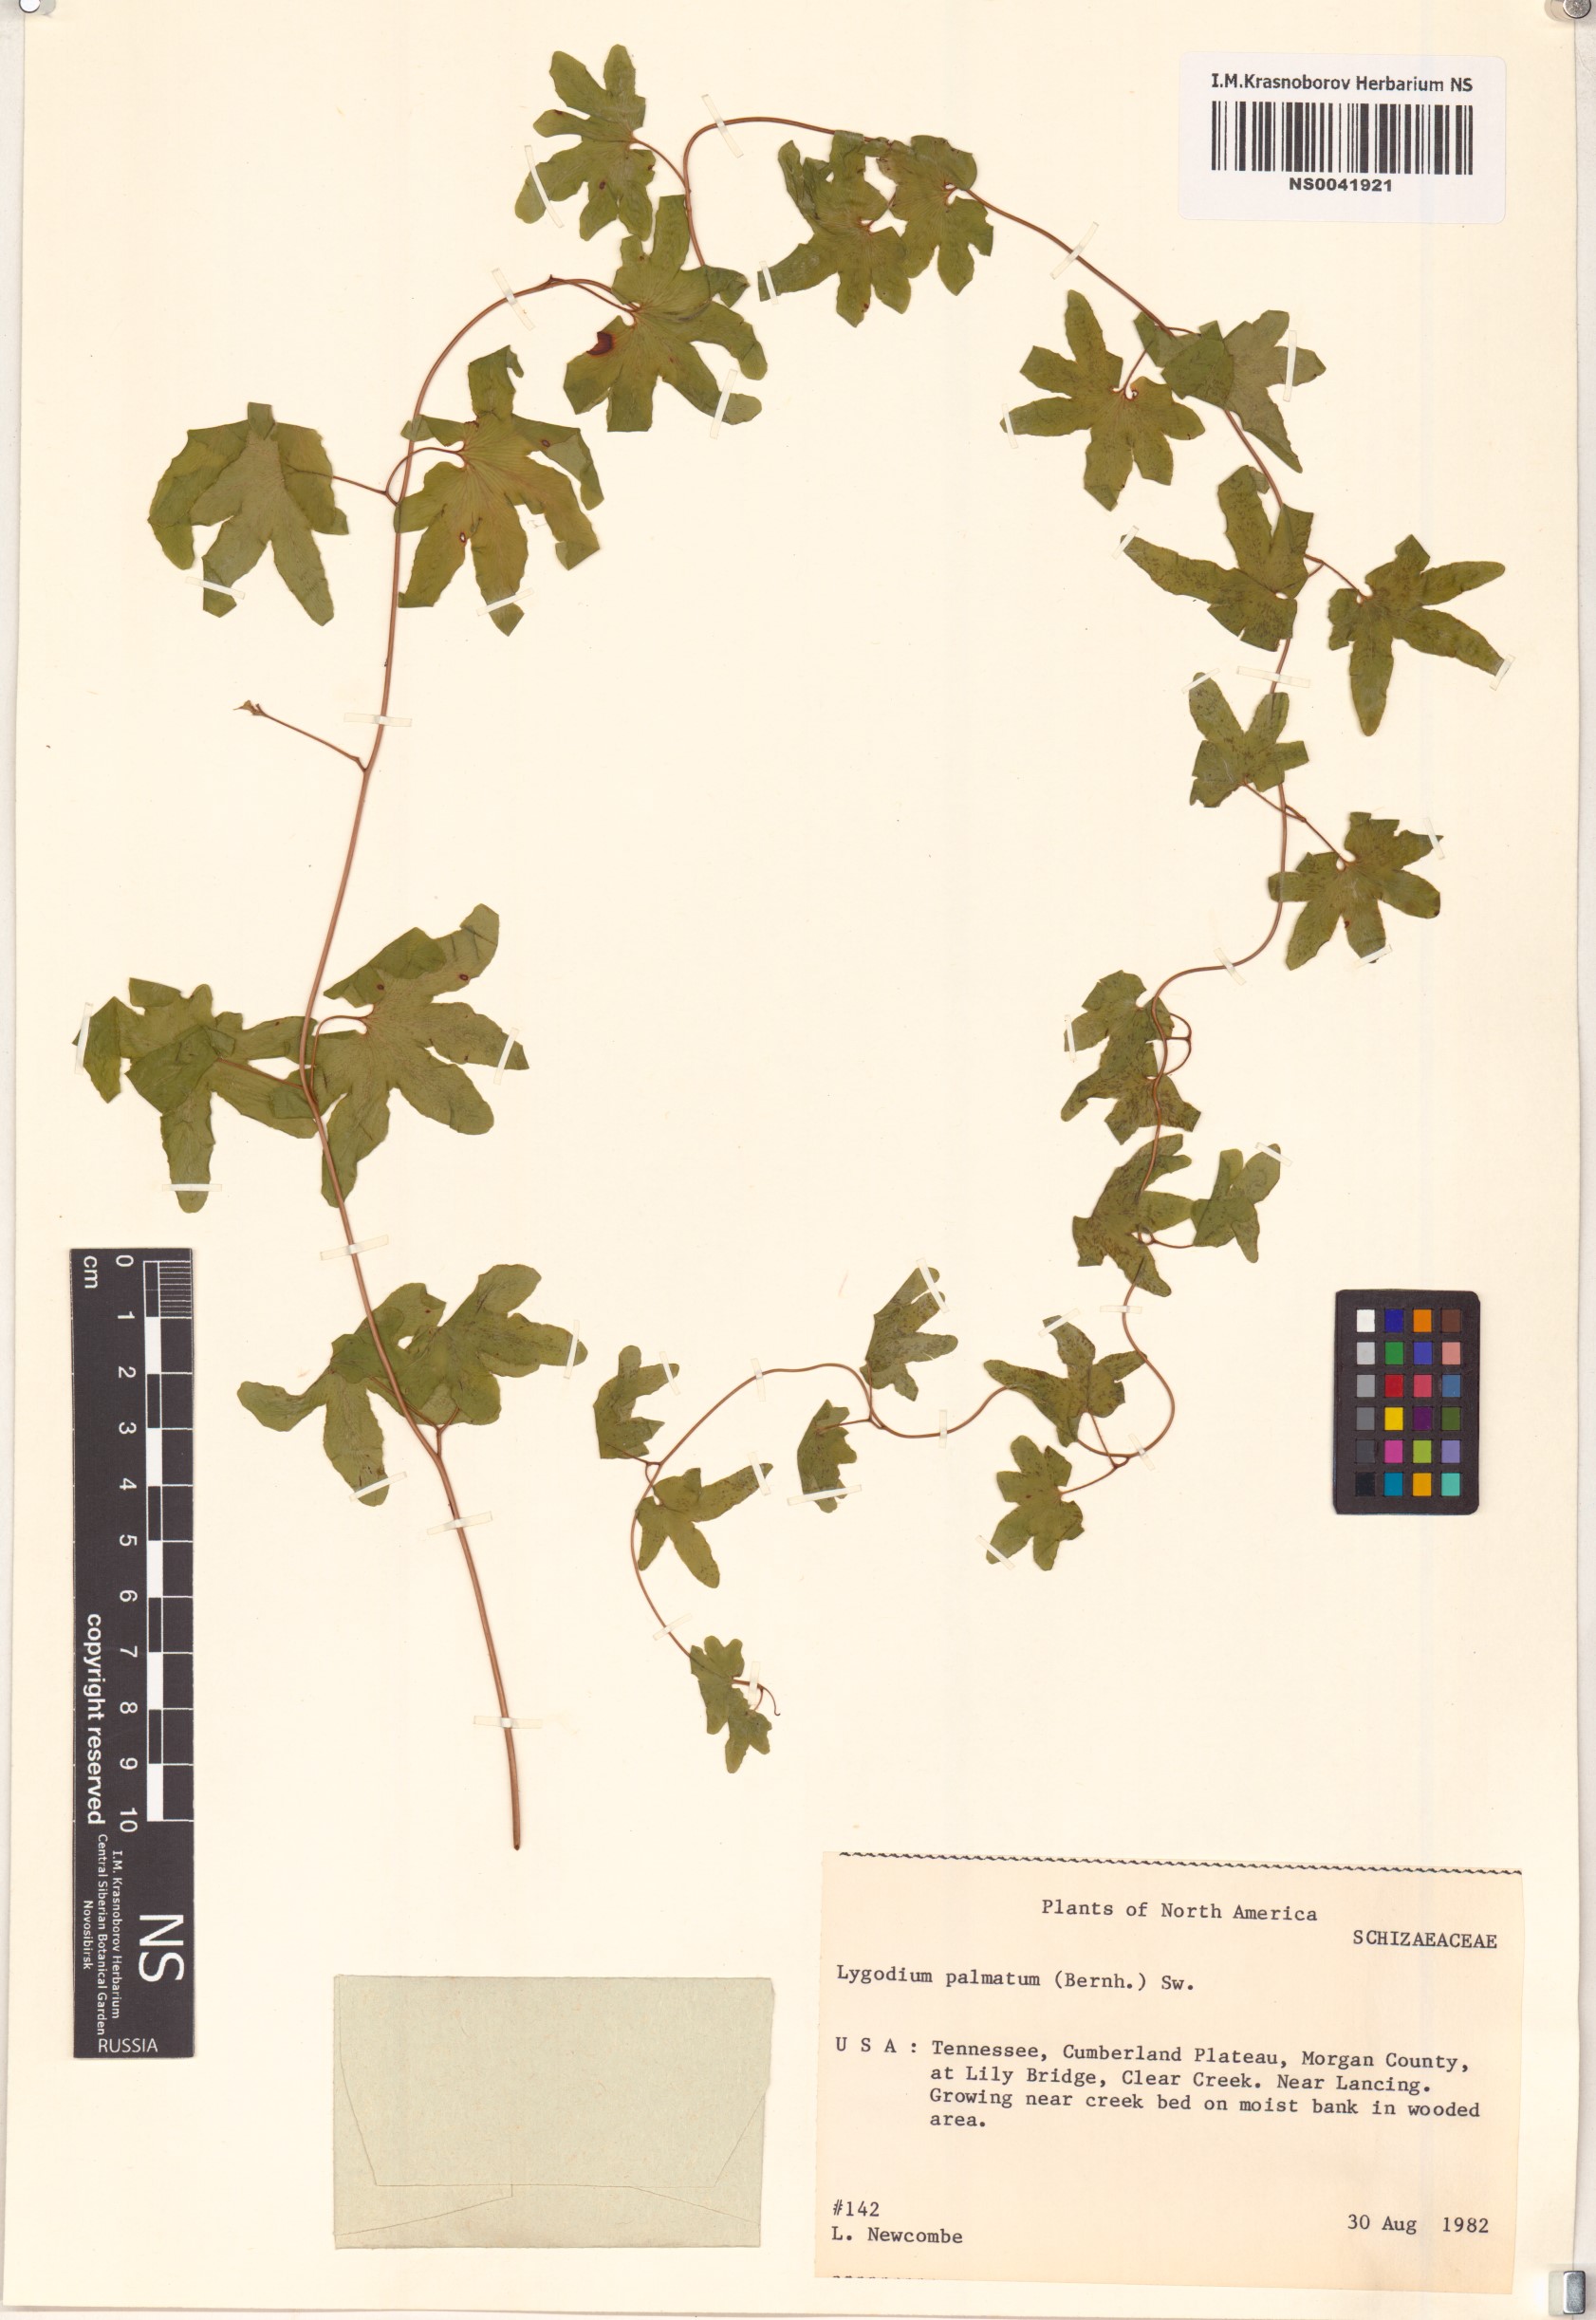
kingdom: Plantae
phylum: Tracheophyta
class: Polypodiopsida
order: Schizaeales
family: Lygodiaceae
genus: Lygodium
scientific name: Lygodium palmatum
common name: American climbing fern
